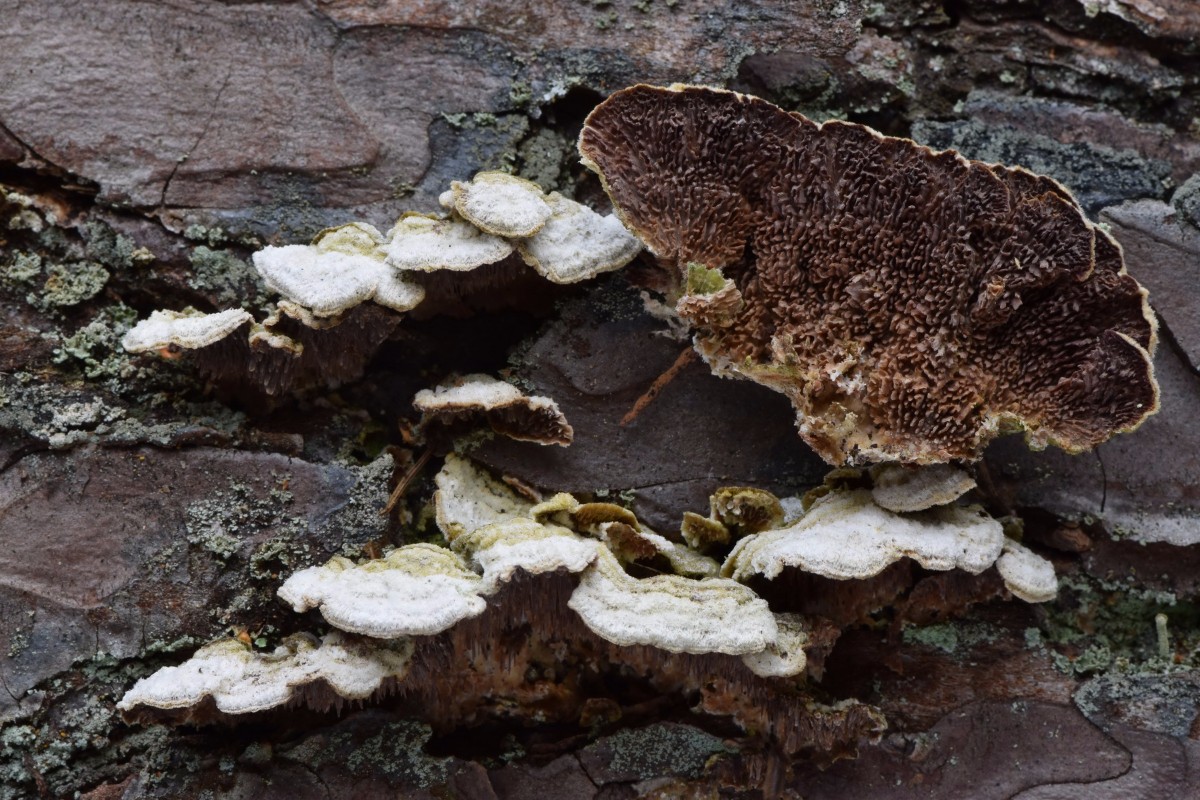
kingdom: Fungi
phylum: Basidiomycota
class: Agaricomycetes
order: Hymenochaetales
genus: Trichaptum
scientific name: Trichaptum fuscoviolaceum
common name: tandet violporesvamp
